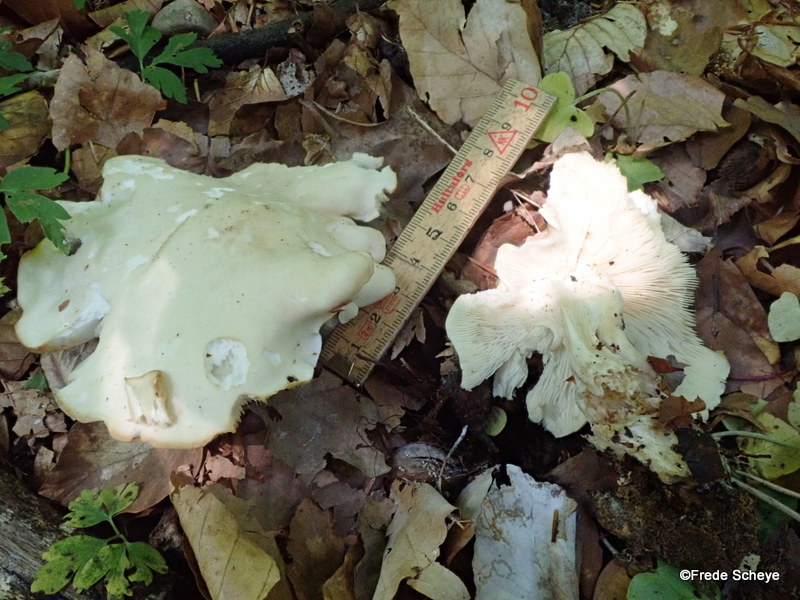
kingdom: Fungi
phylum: Basidiomycota
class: Agaricomycetes
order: Agaricales
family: Lyophyllaceae
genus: Calocybe
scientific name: Calocybe gambosa
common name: vårmusseron
